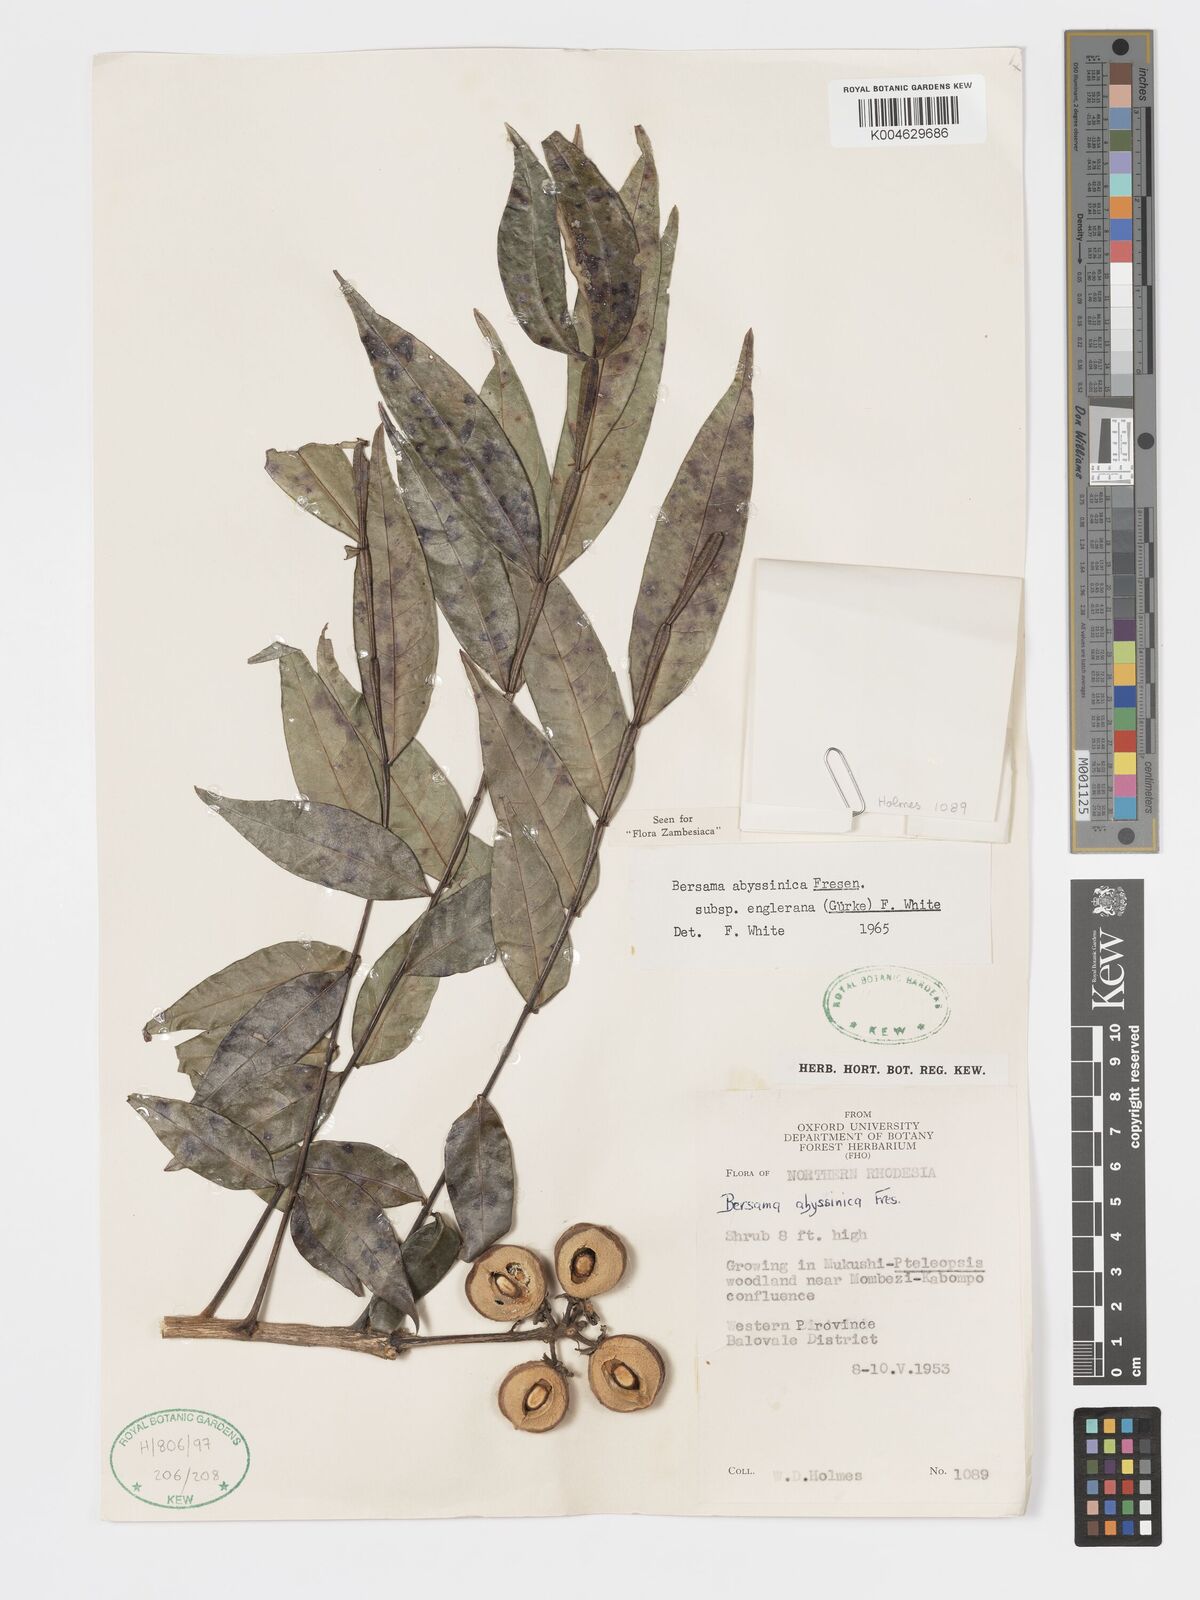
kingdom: Plantae
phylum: Tracheophyta
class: Magnoliopsida
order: Geraniales
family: Melianthaceae
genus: Bersama
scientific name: Bersama abyssinica
